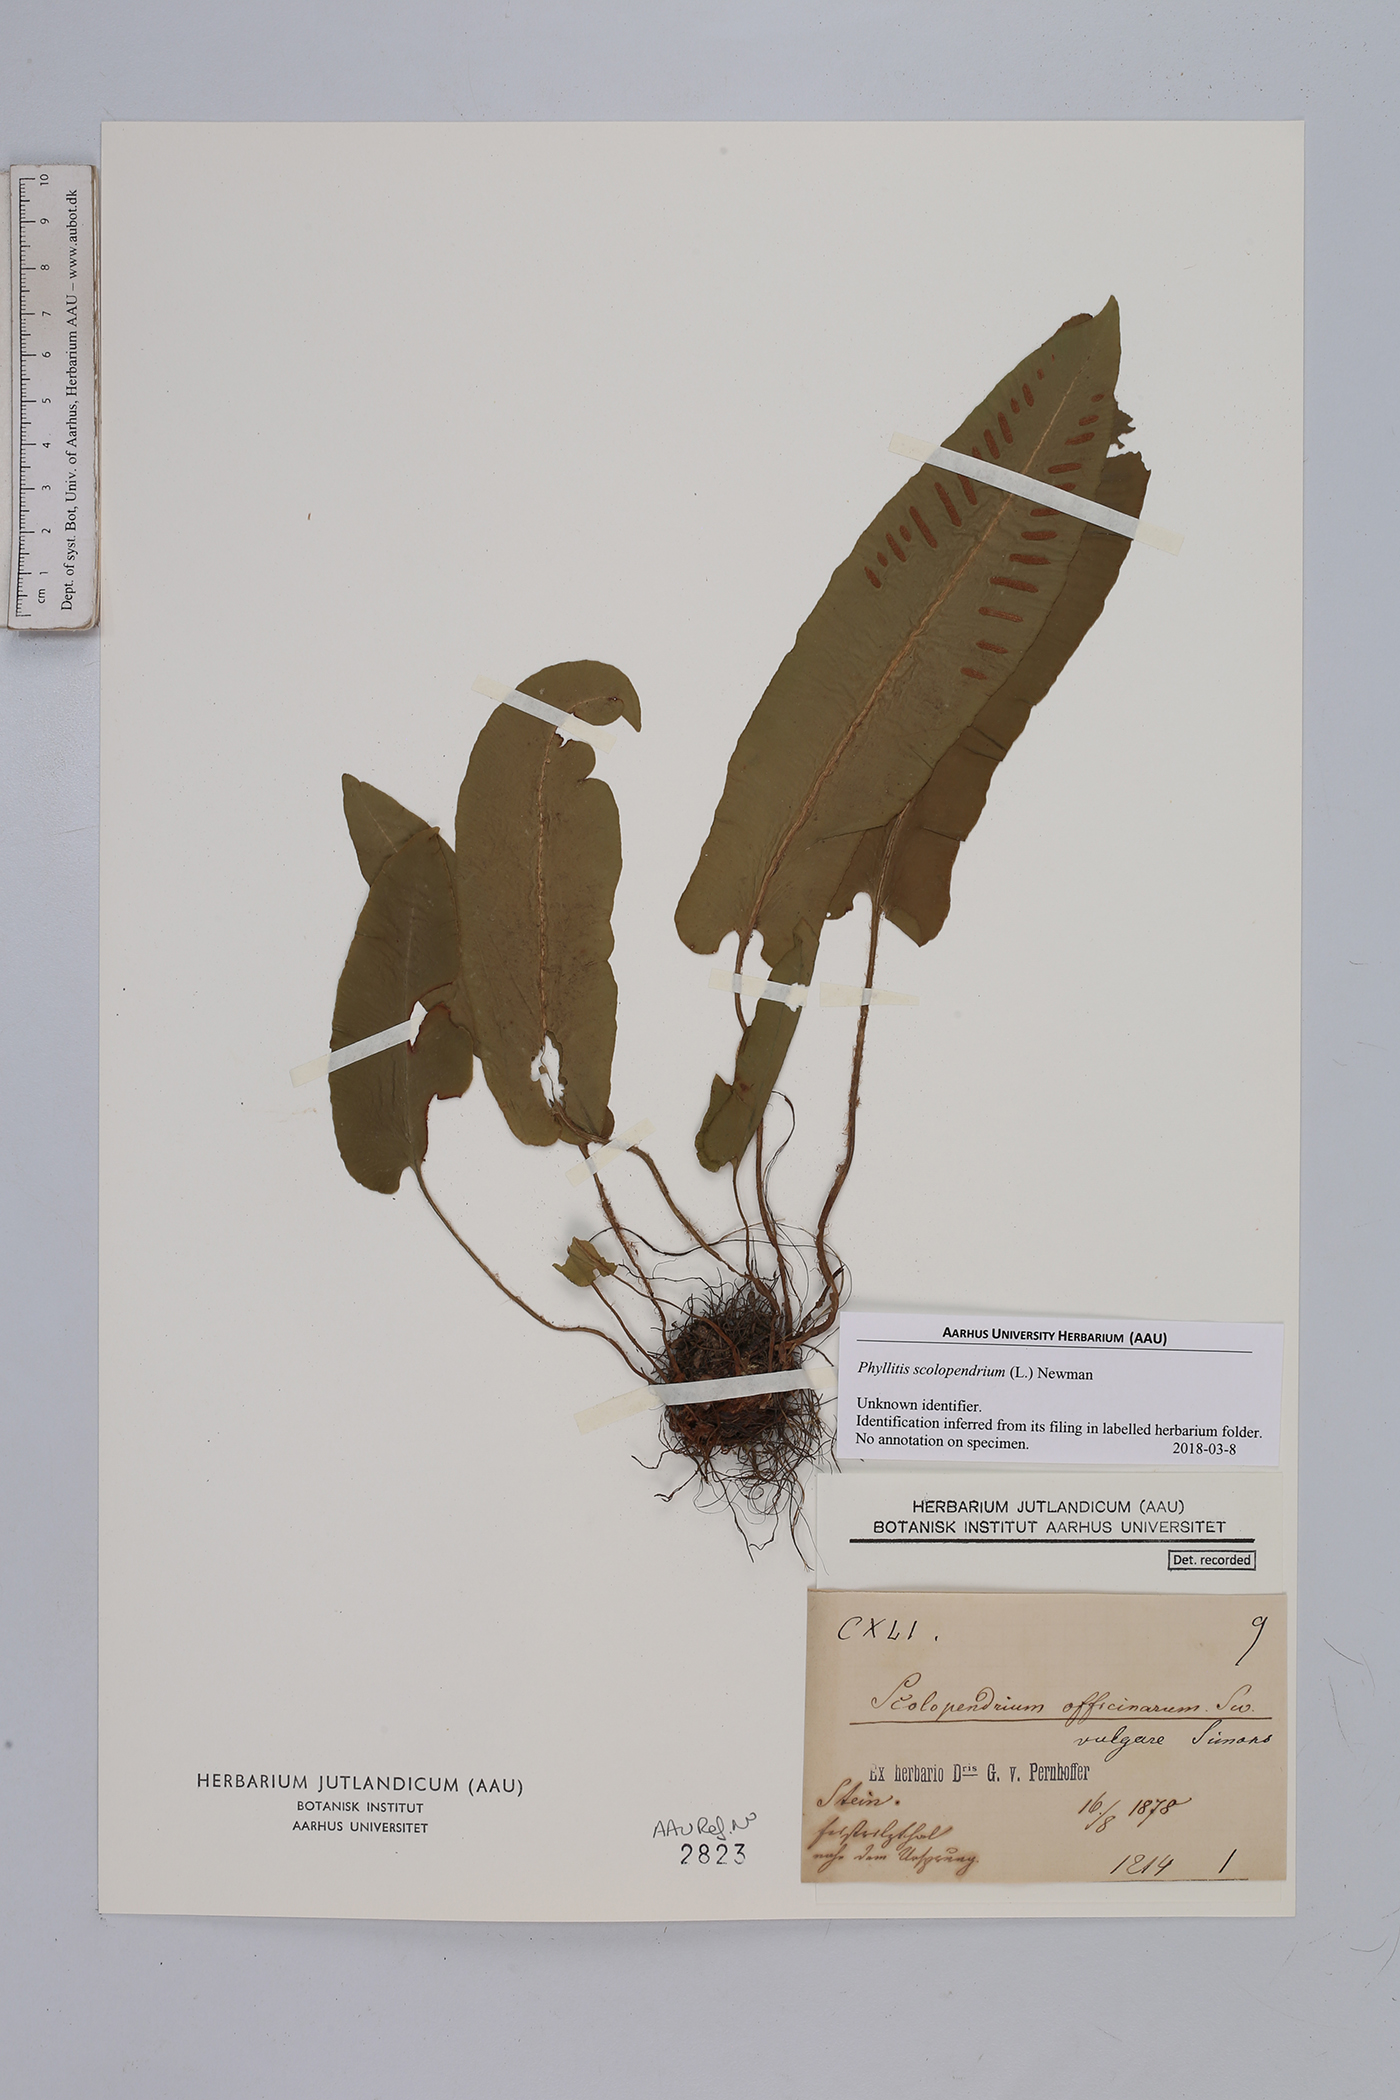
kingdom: Plantae
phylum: Tracheophyta
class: Polypodiopsida
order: Polypodiales
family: Aspleniaceae
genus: Asplenium
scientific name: Asplenium scolopendrium
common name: Hart's-tongue fern
